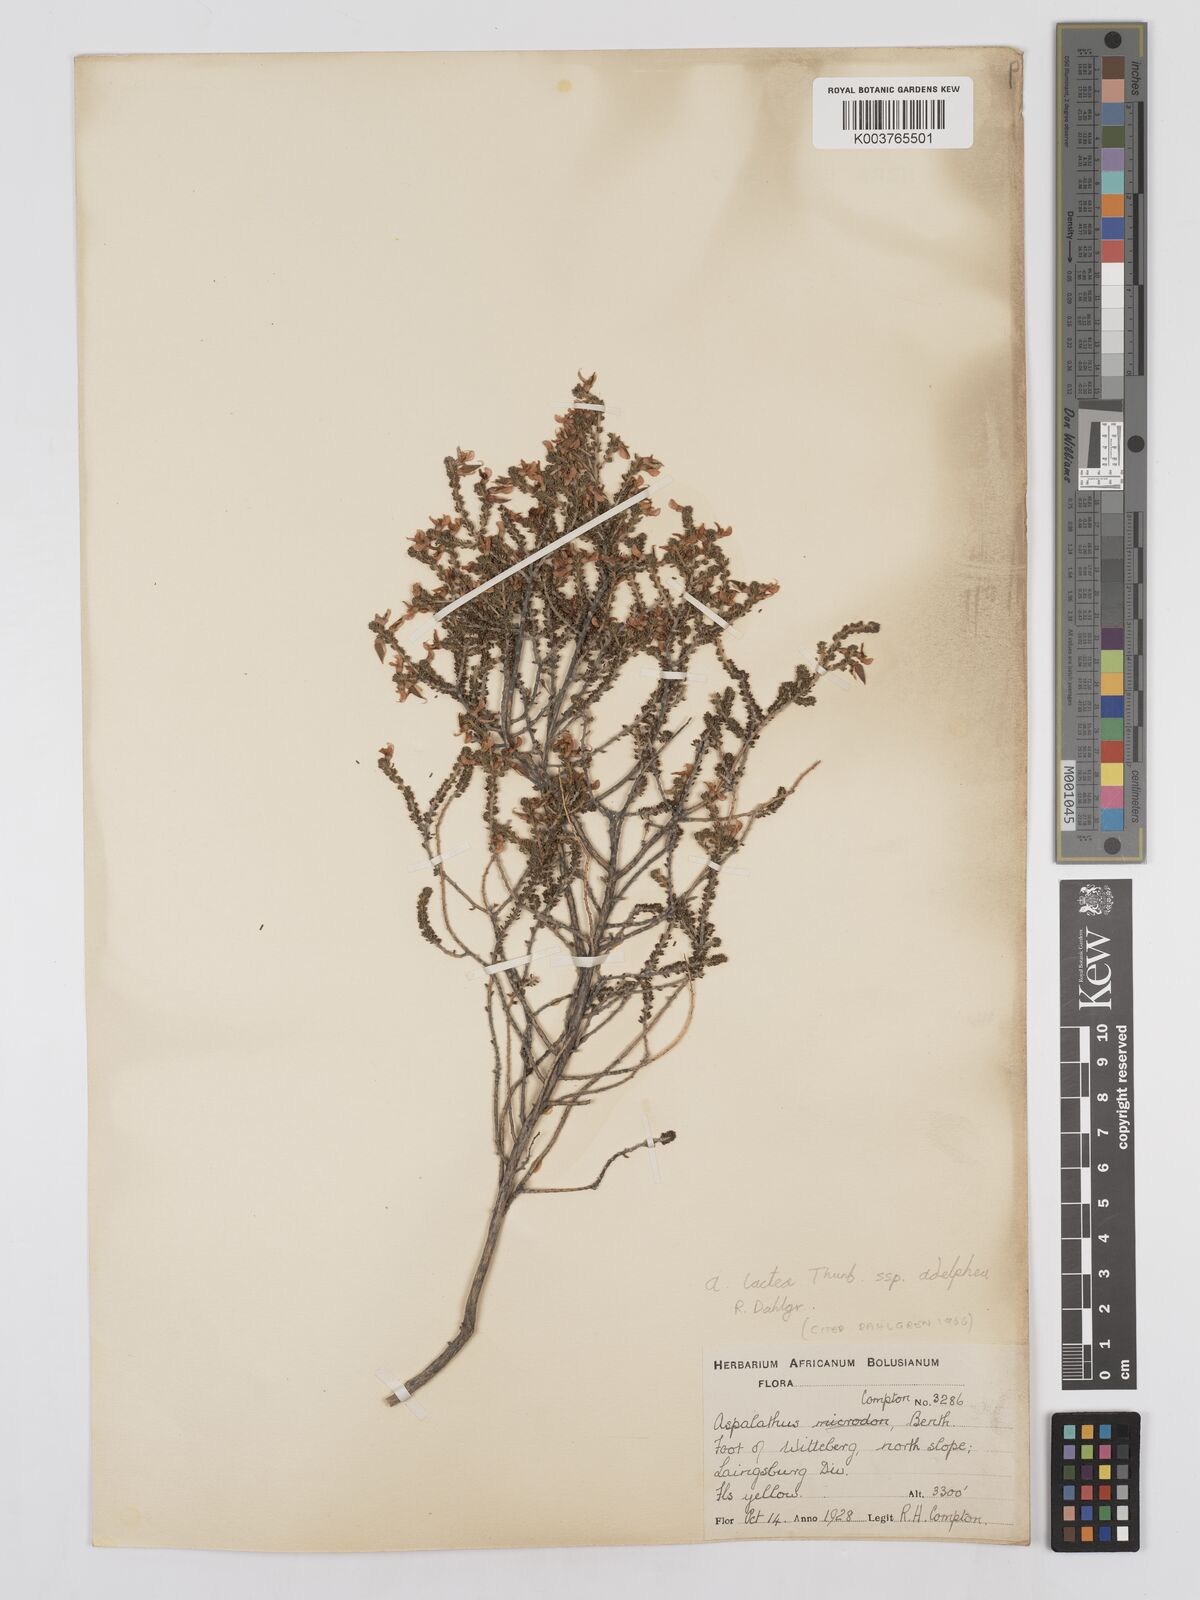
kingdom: Plantae
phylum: Tracheophyta
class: Magnoliopsida
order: Fabales
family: Fabaceae
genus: Aspalathus
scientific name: Aspalathus lactea
